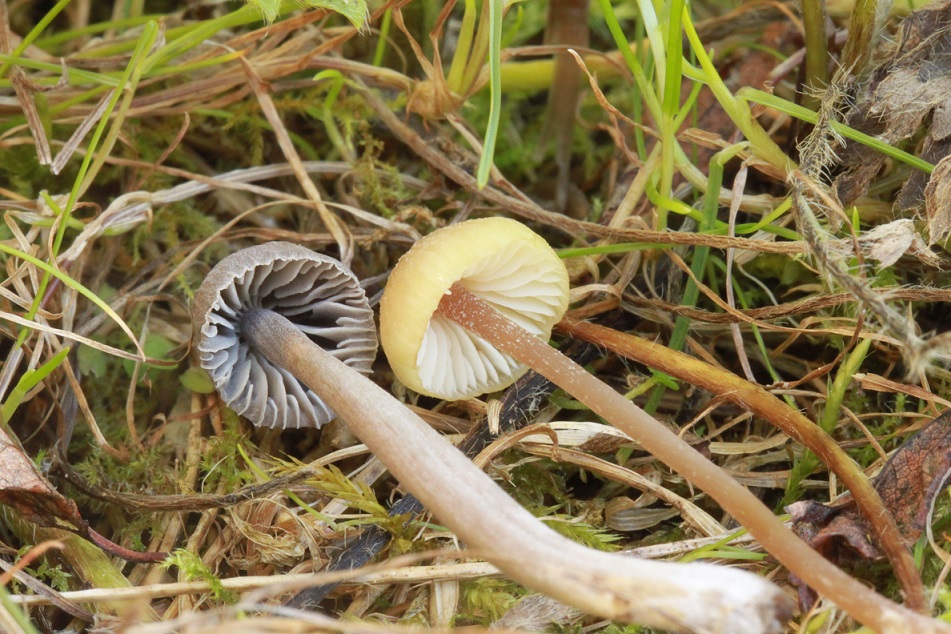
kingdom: Fungi
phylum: Basidiomycota
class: Agaricomycetes
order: Agaricales
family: Entolomataceae
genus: Entoloma
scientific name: Entoloma pleopodium
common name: duftende rødblad
